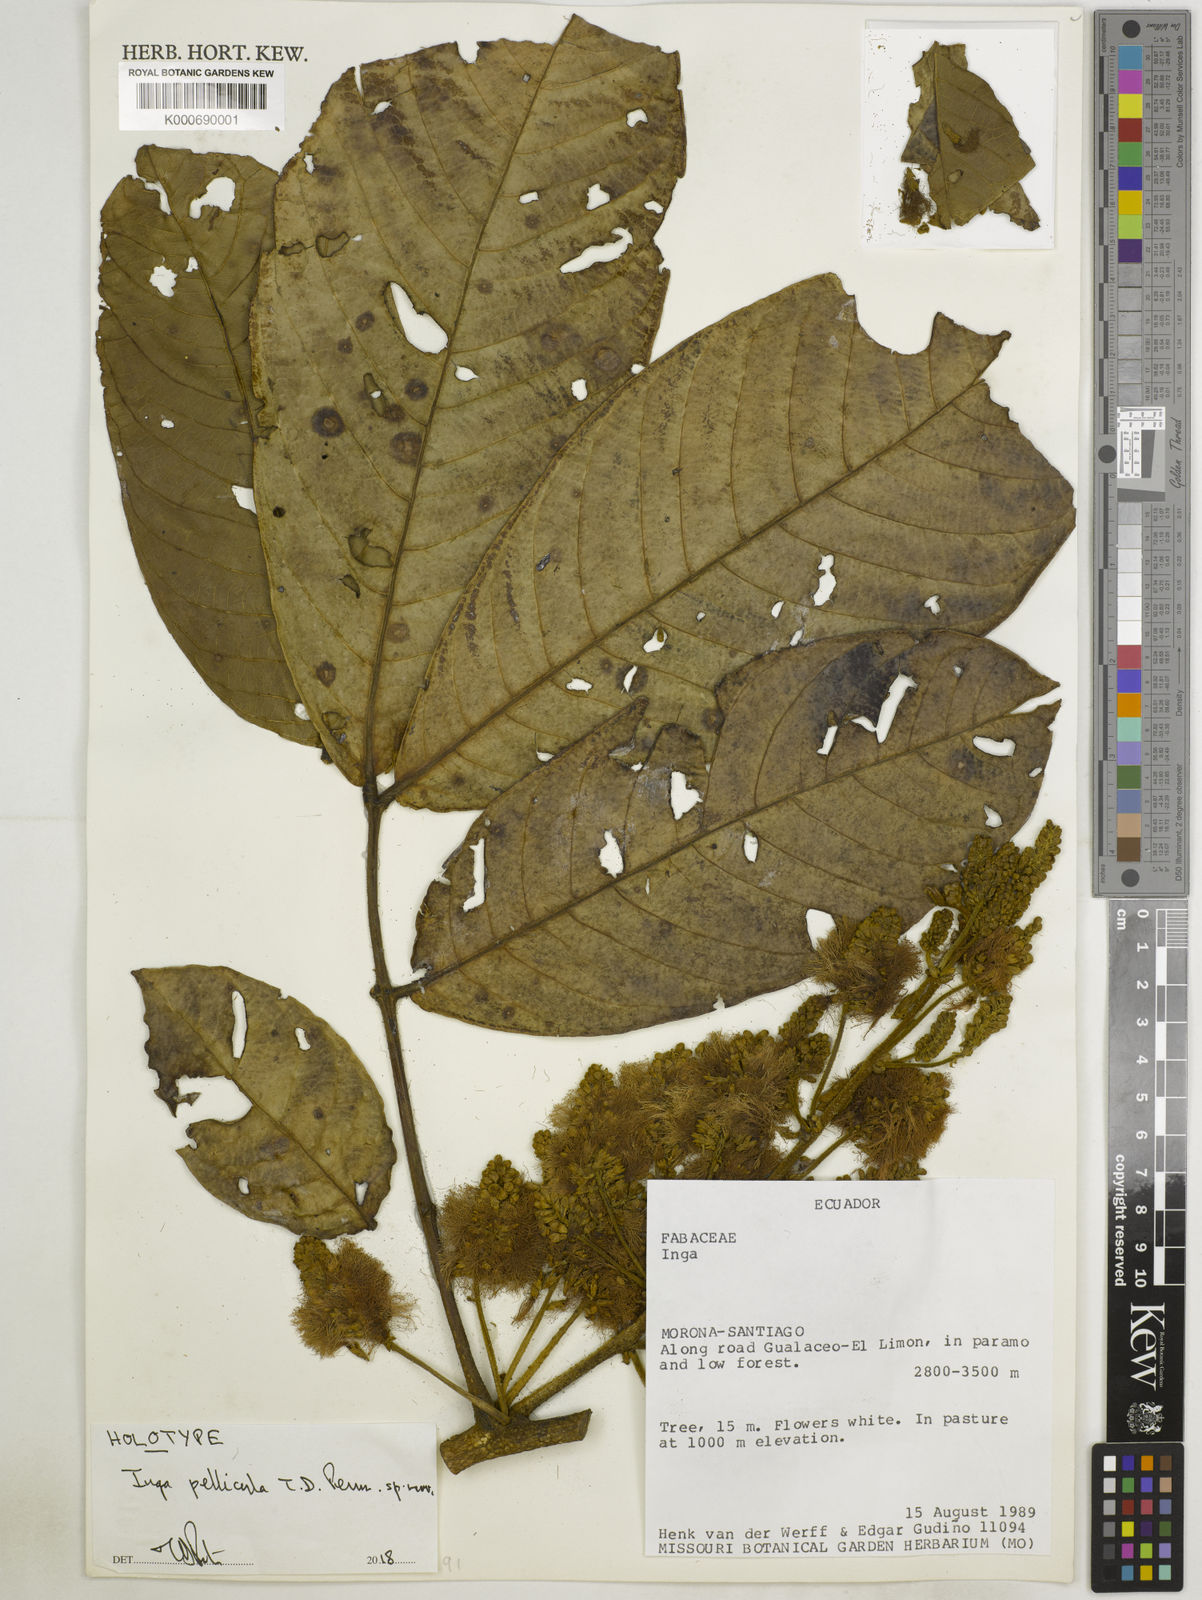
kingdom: Plantae
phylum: Tracheophyta
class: Magnoliopsida
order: Fabales
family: Fabaceae
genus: Inga
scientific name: Inga pellicula
